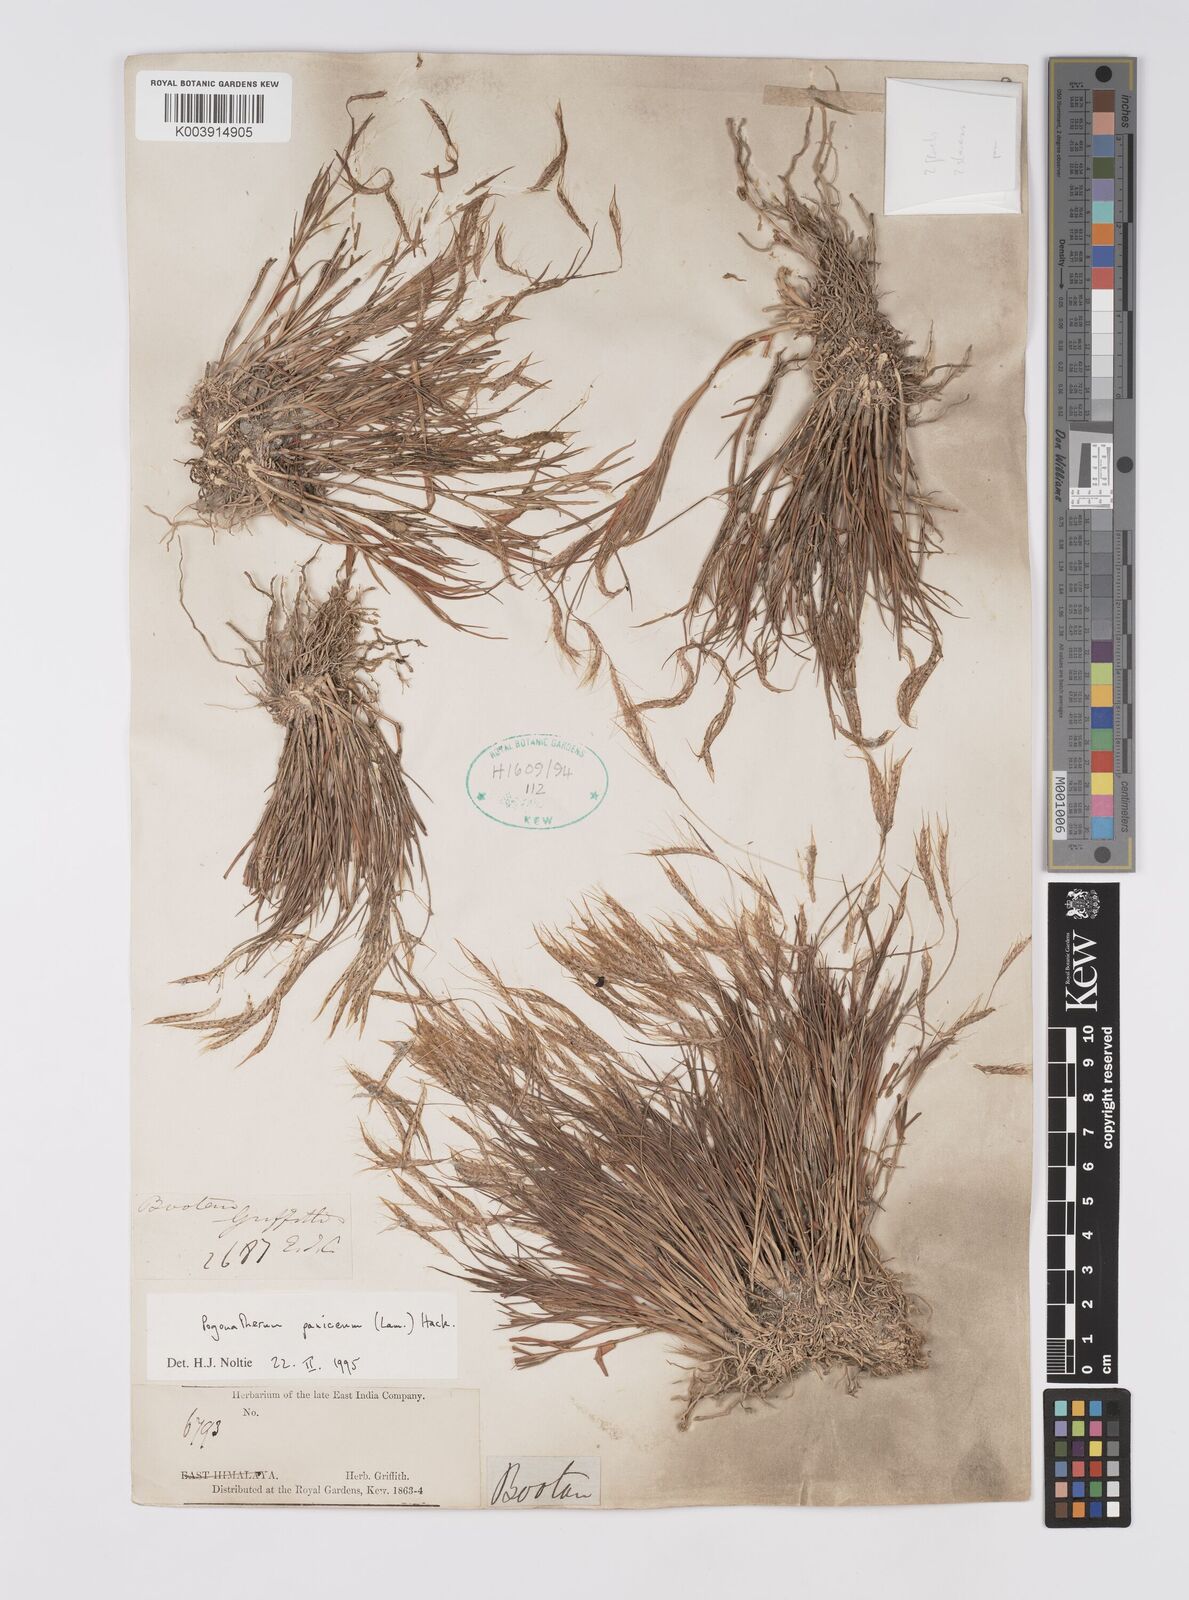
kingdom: Plantae
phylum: Tracheophyta
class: Liliopsida
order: Poales
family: Poaceae
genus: Pogonatherum
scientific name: Pogonatherum paniceum
